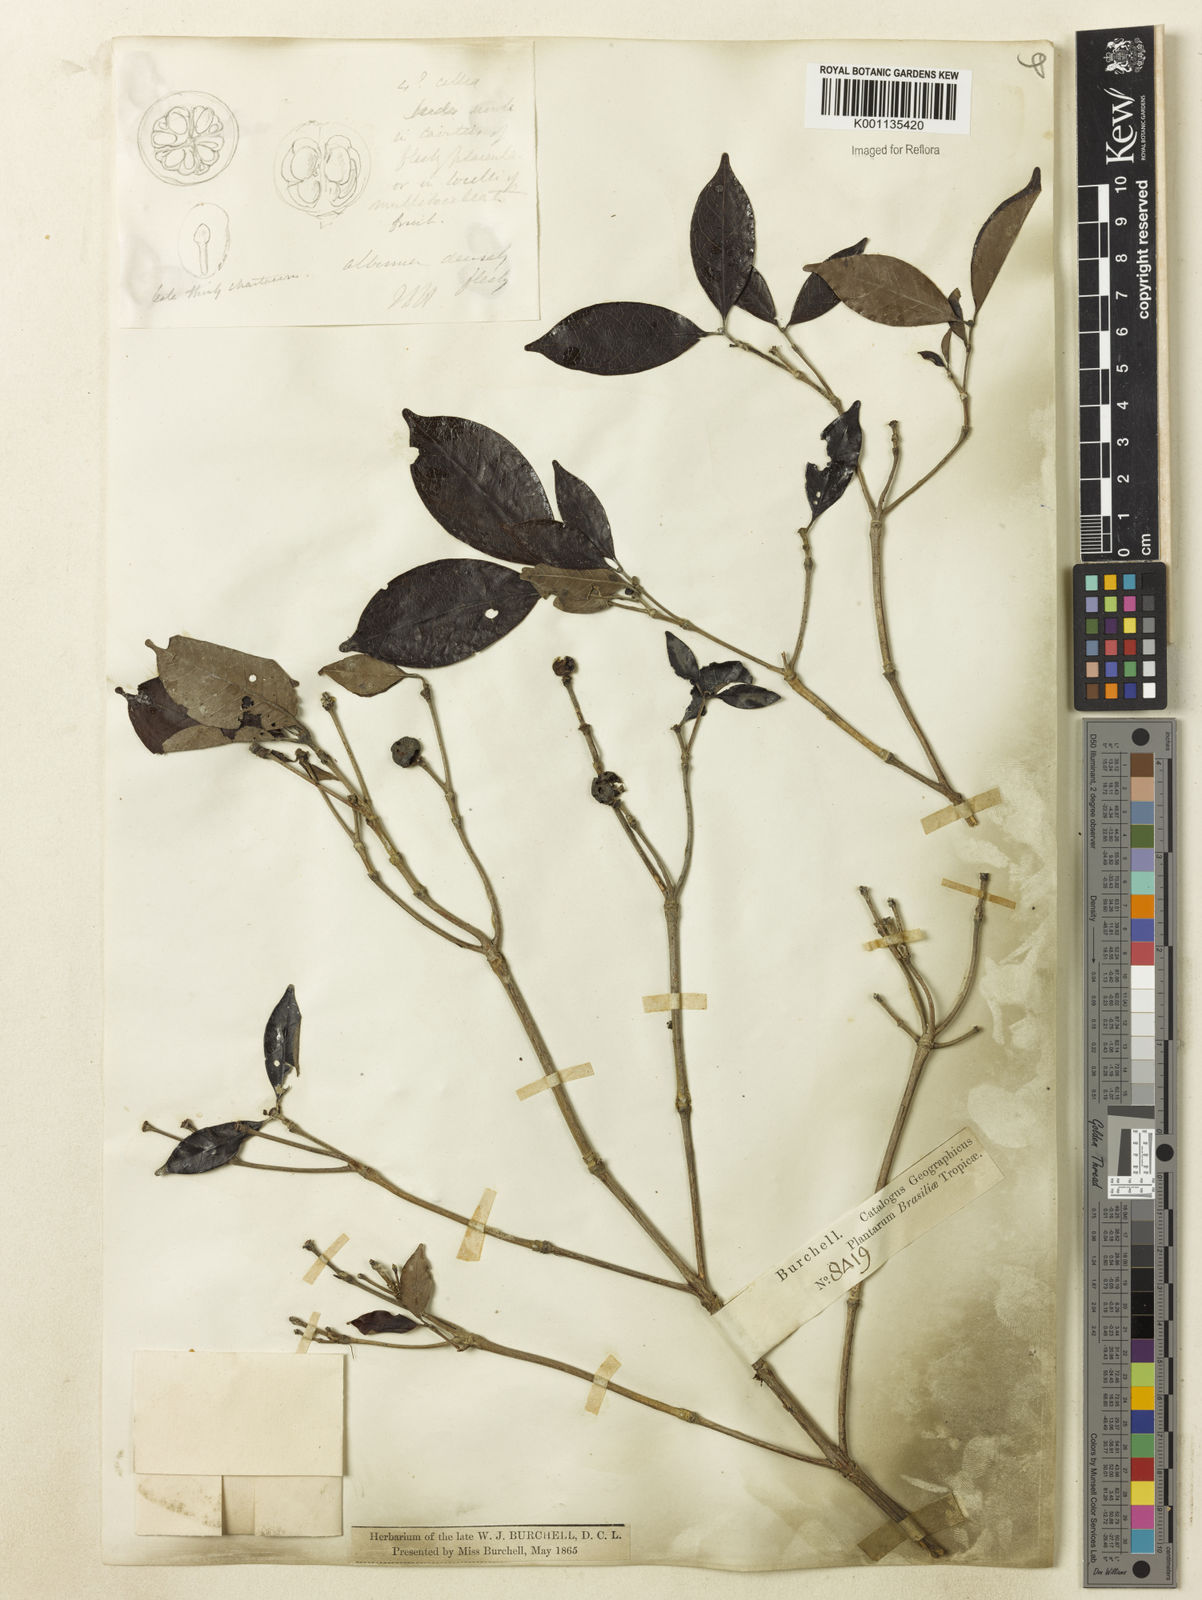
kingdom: Plantae
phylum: Tracheophyta
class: Magnoliopsida
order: Gentianales
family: Rubiaceae
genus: Cordiera
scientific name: Cordiera myrciifolia
